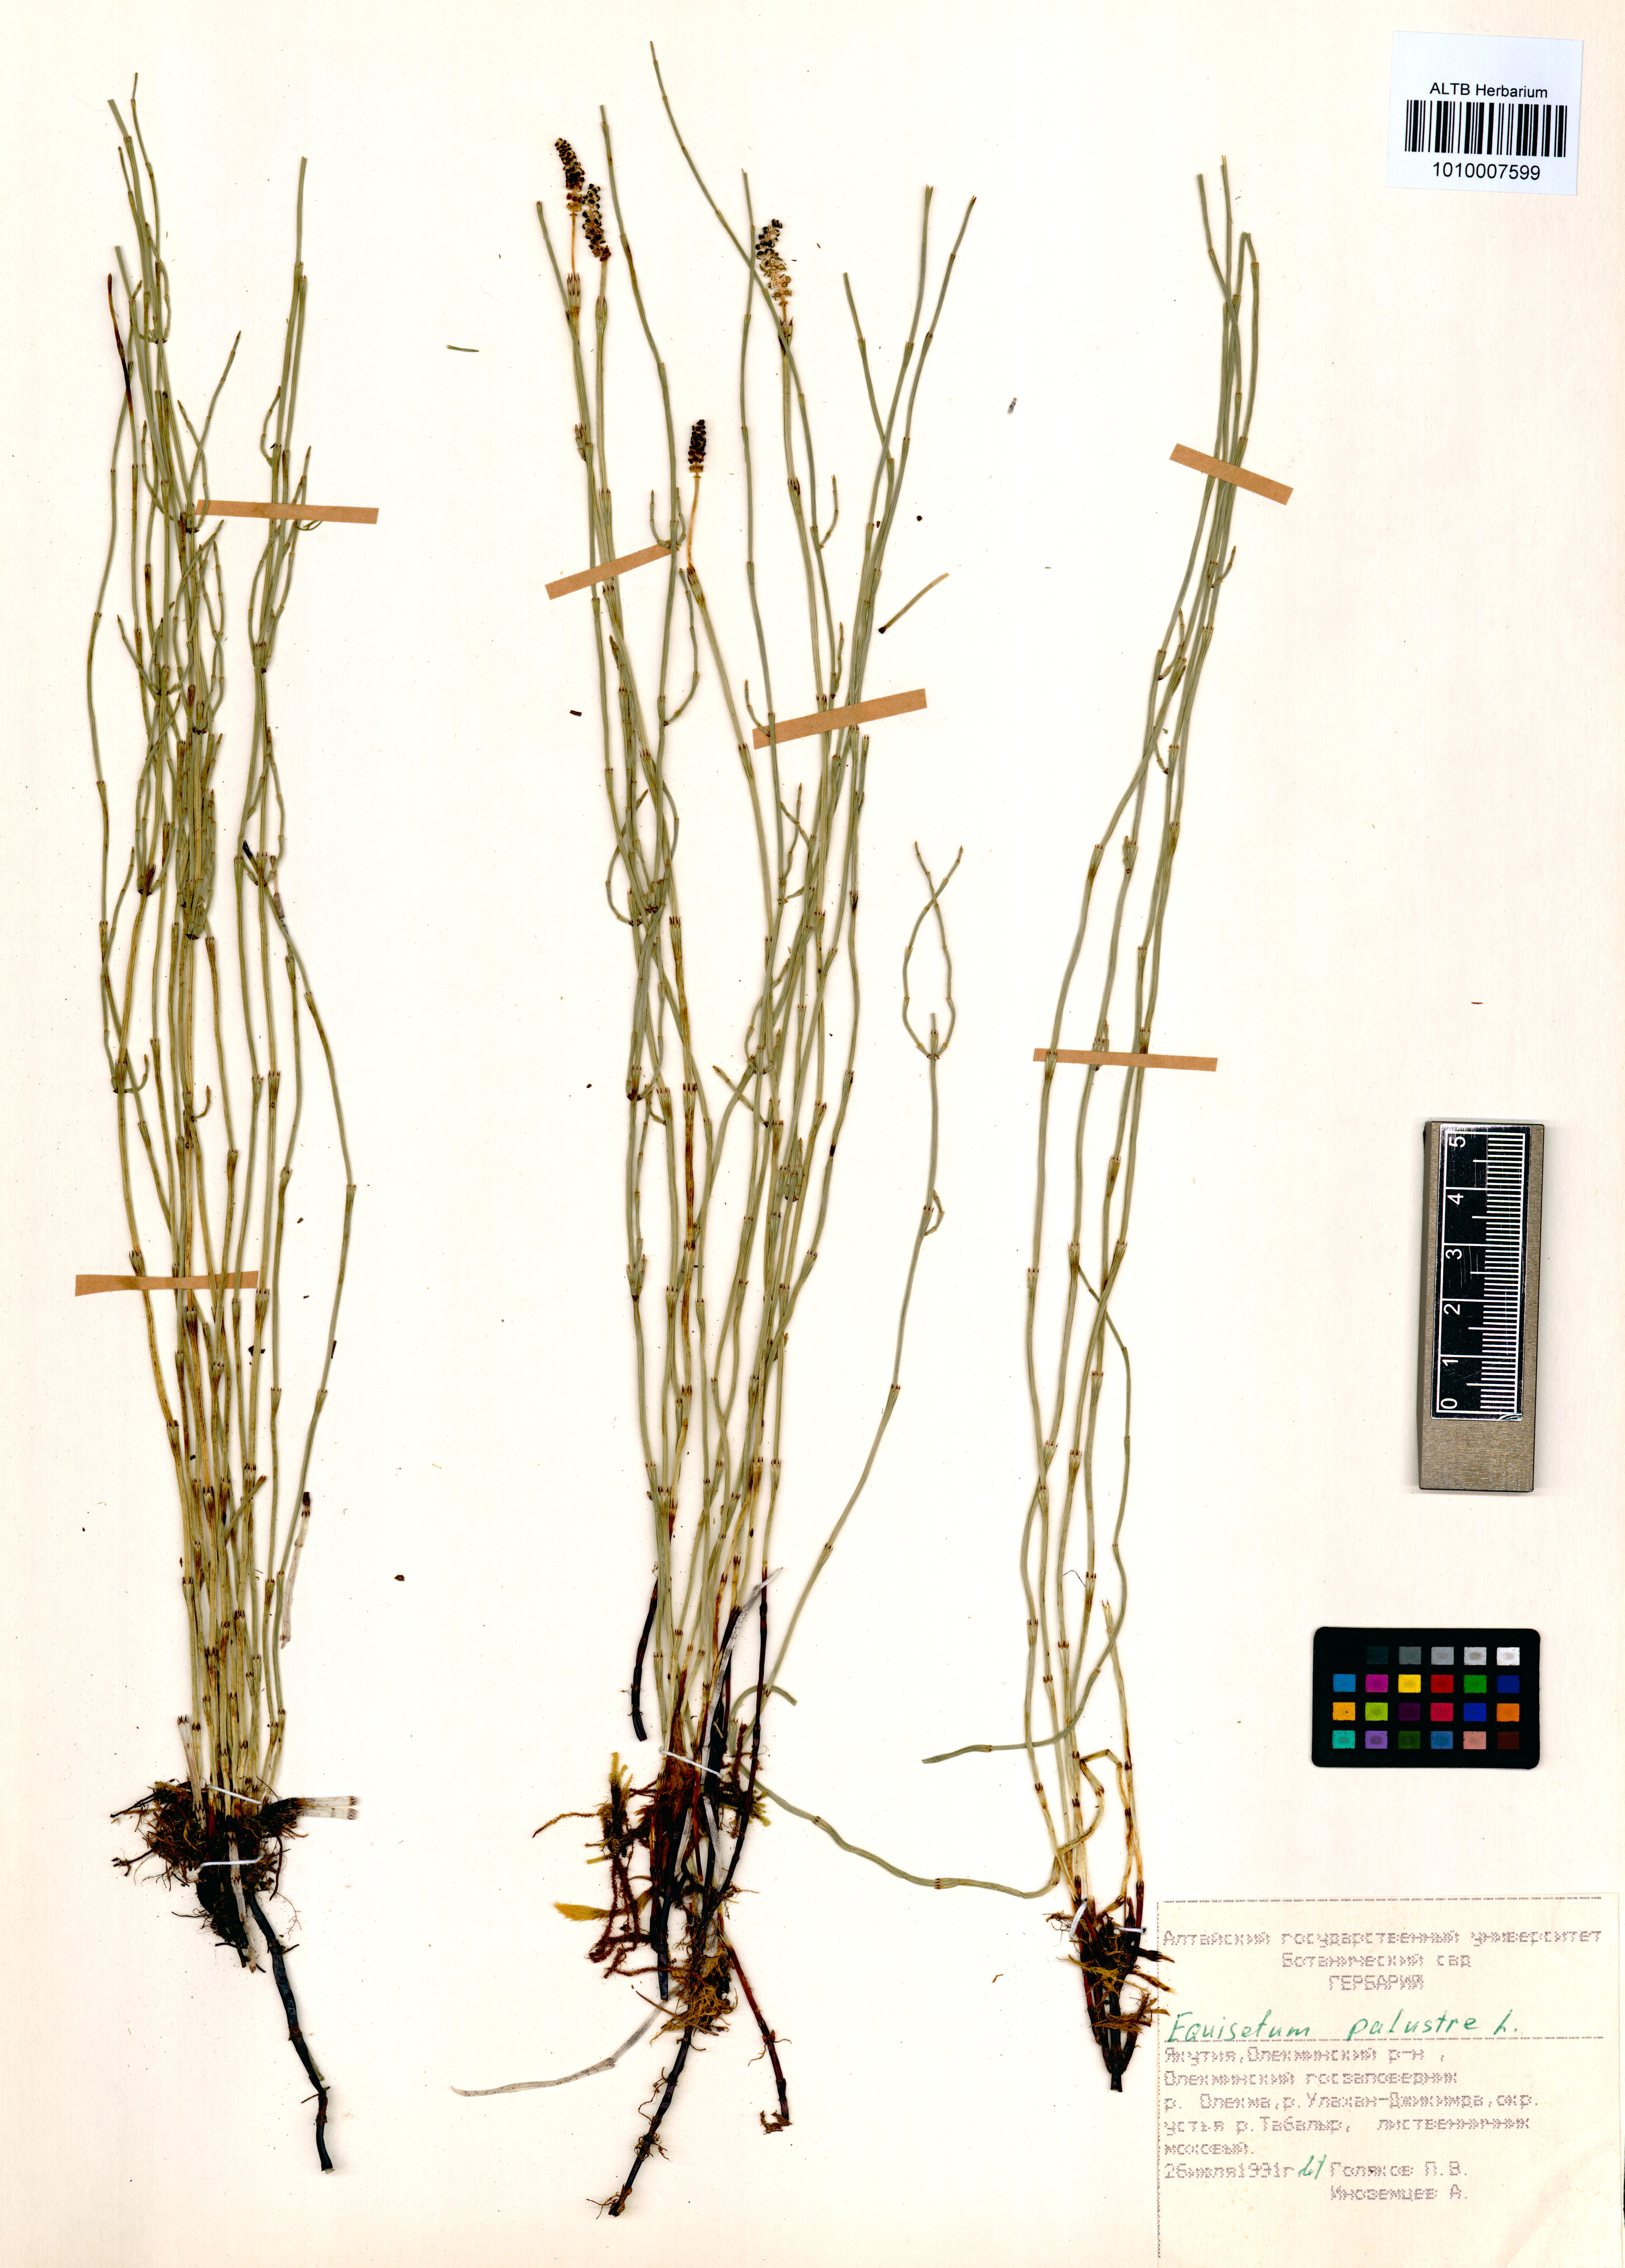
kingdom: Plantae
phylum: Tracheophyta
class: Polypodiopsida
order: Equisetales
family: Equisetaceae
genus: Equisetum
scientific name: Equisetum palustre
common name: Marsh horsetail
